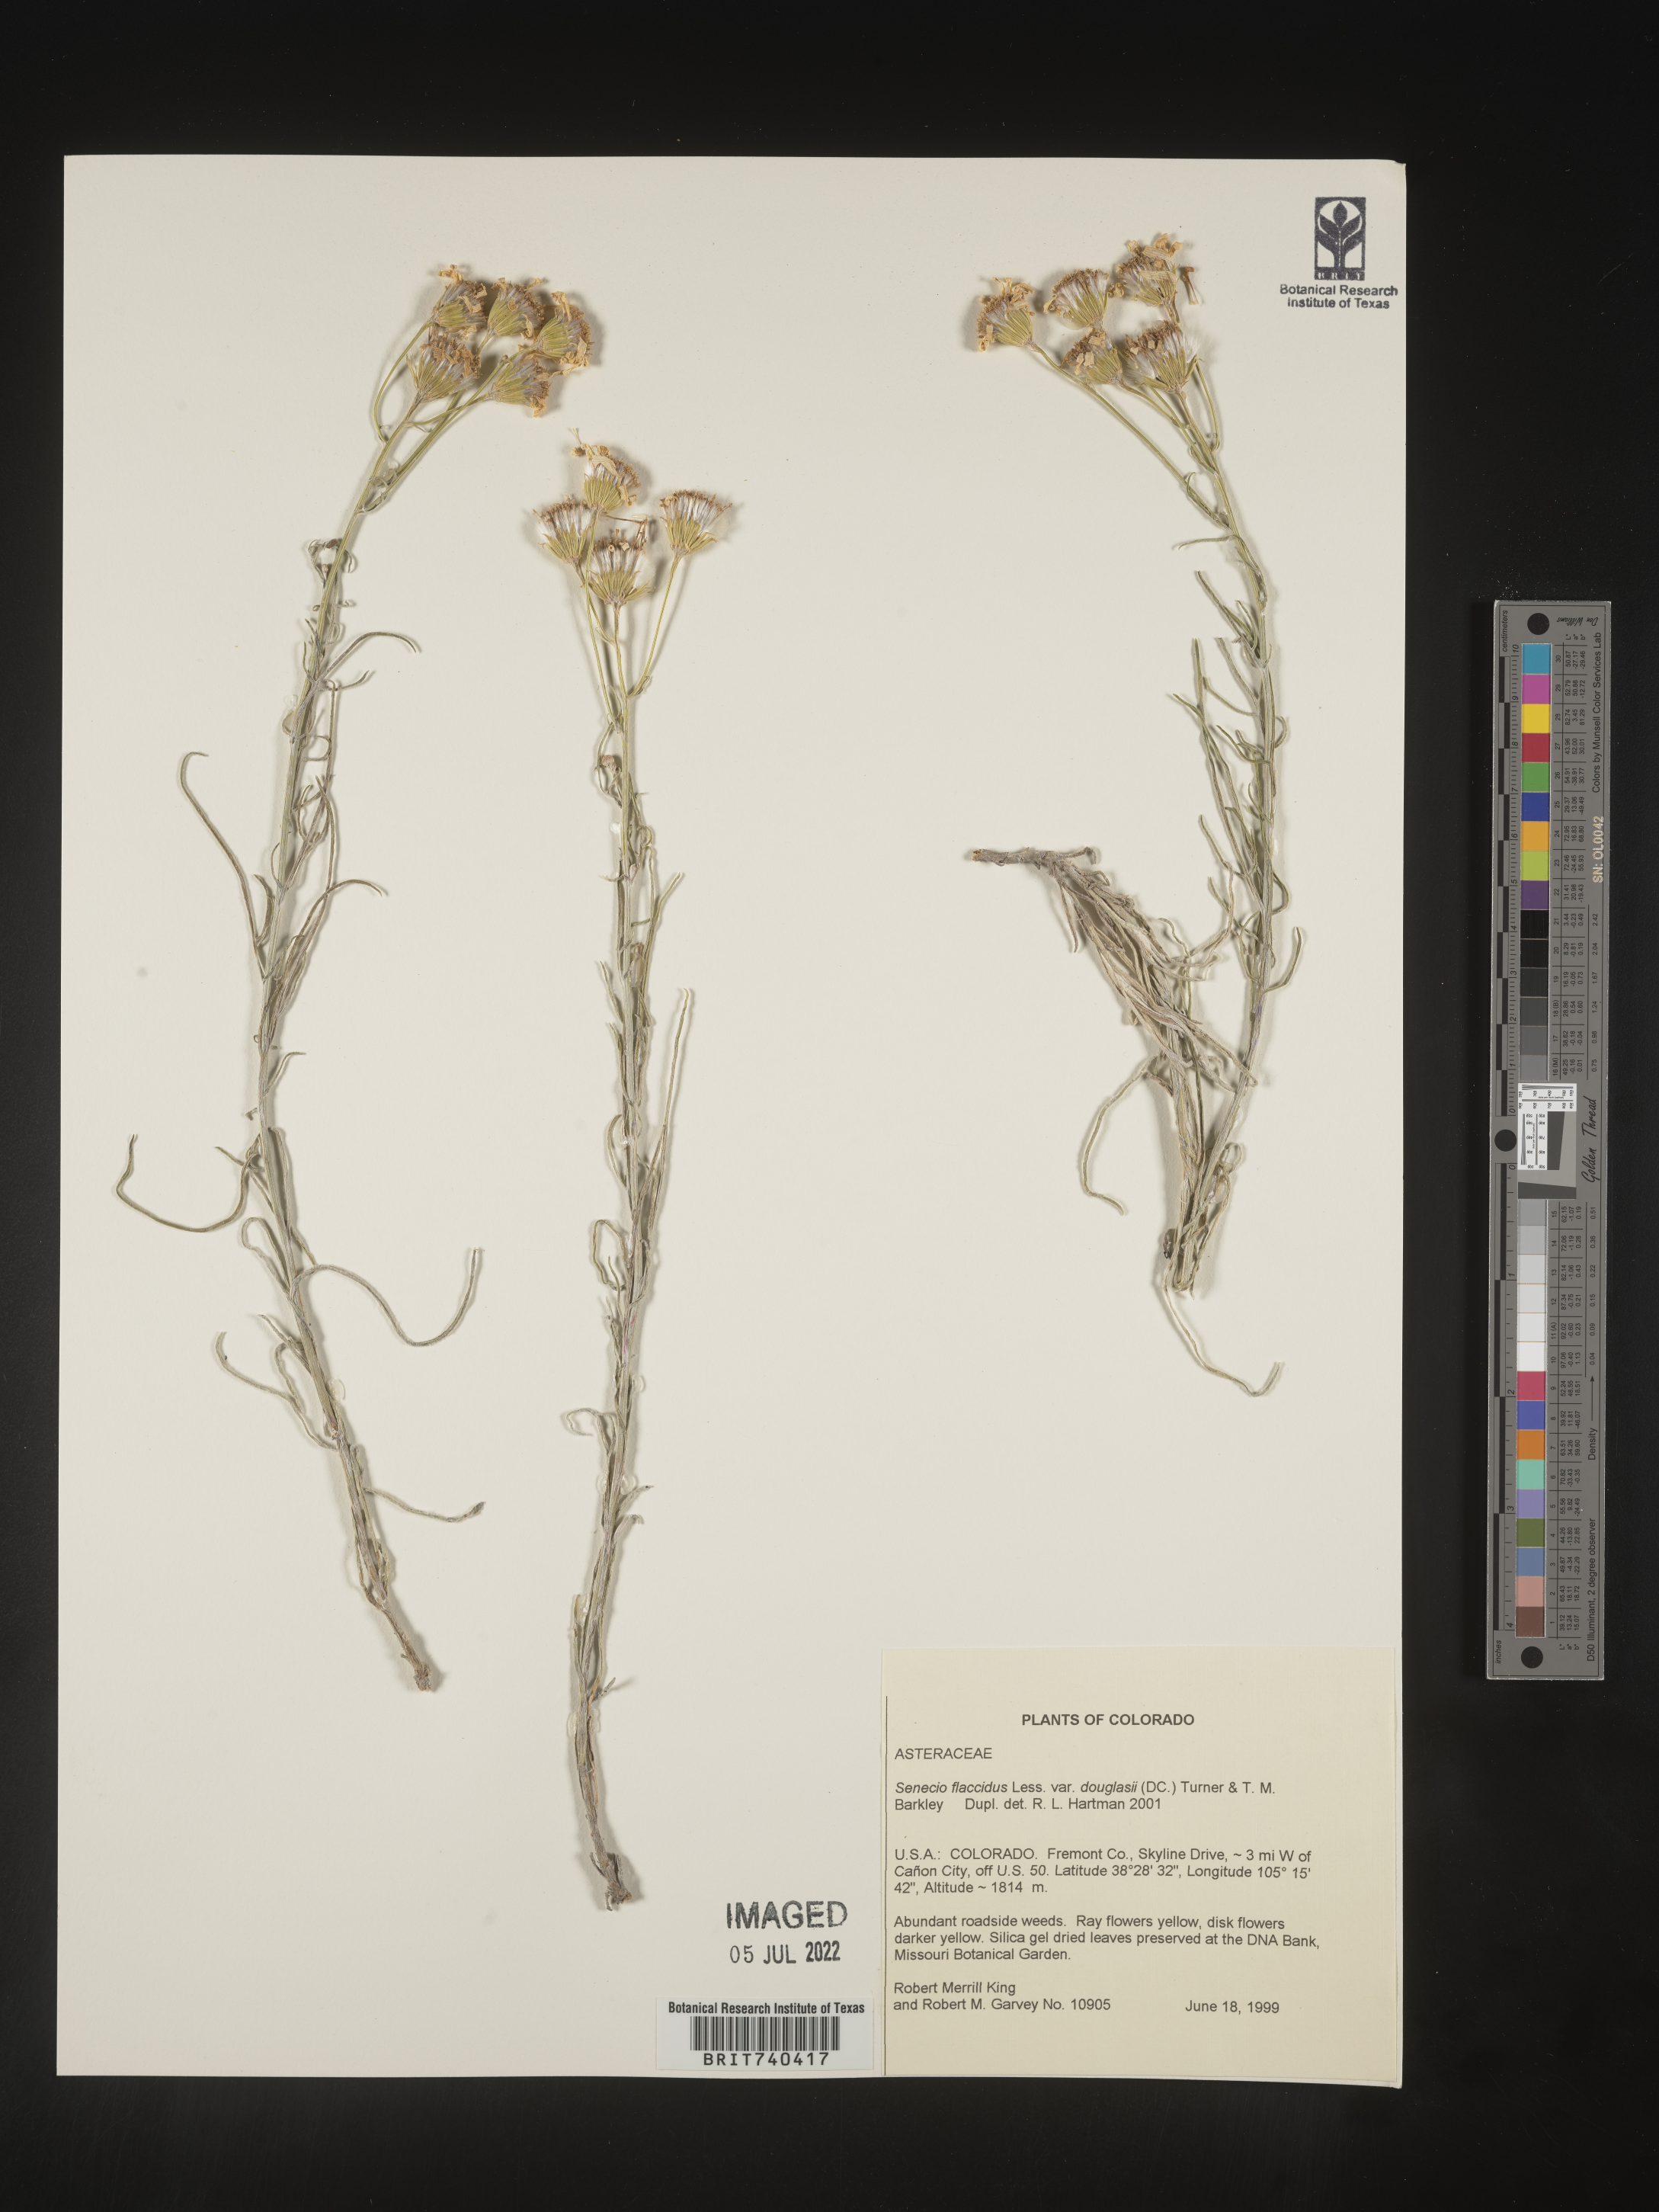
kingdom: Plantae
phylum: Tracheophyta
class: Magnoliopsida
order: Asterales
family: Asteraceae
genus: Senecio
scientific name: Senecio flaccidus
